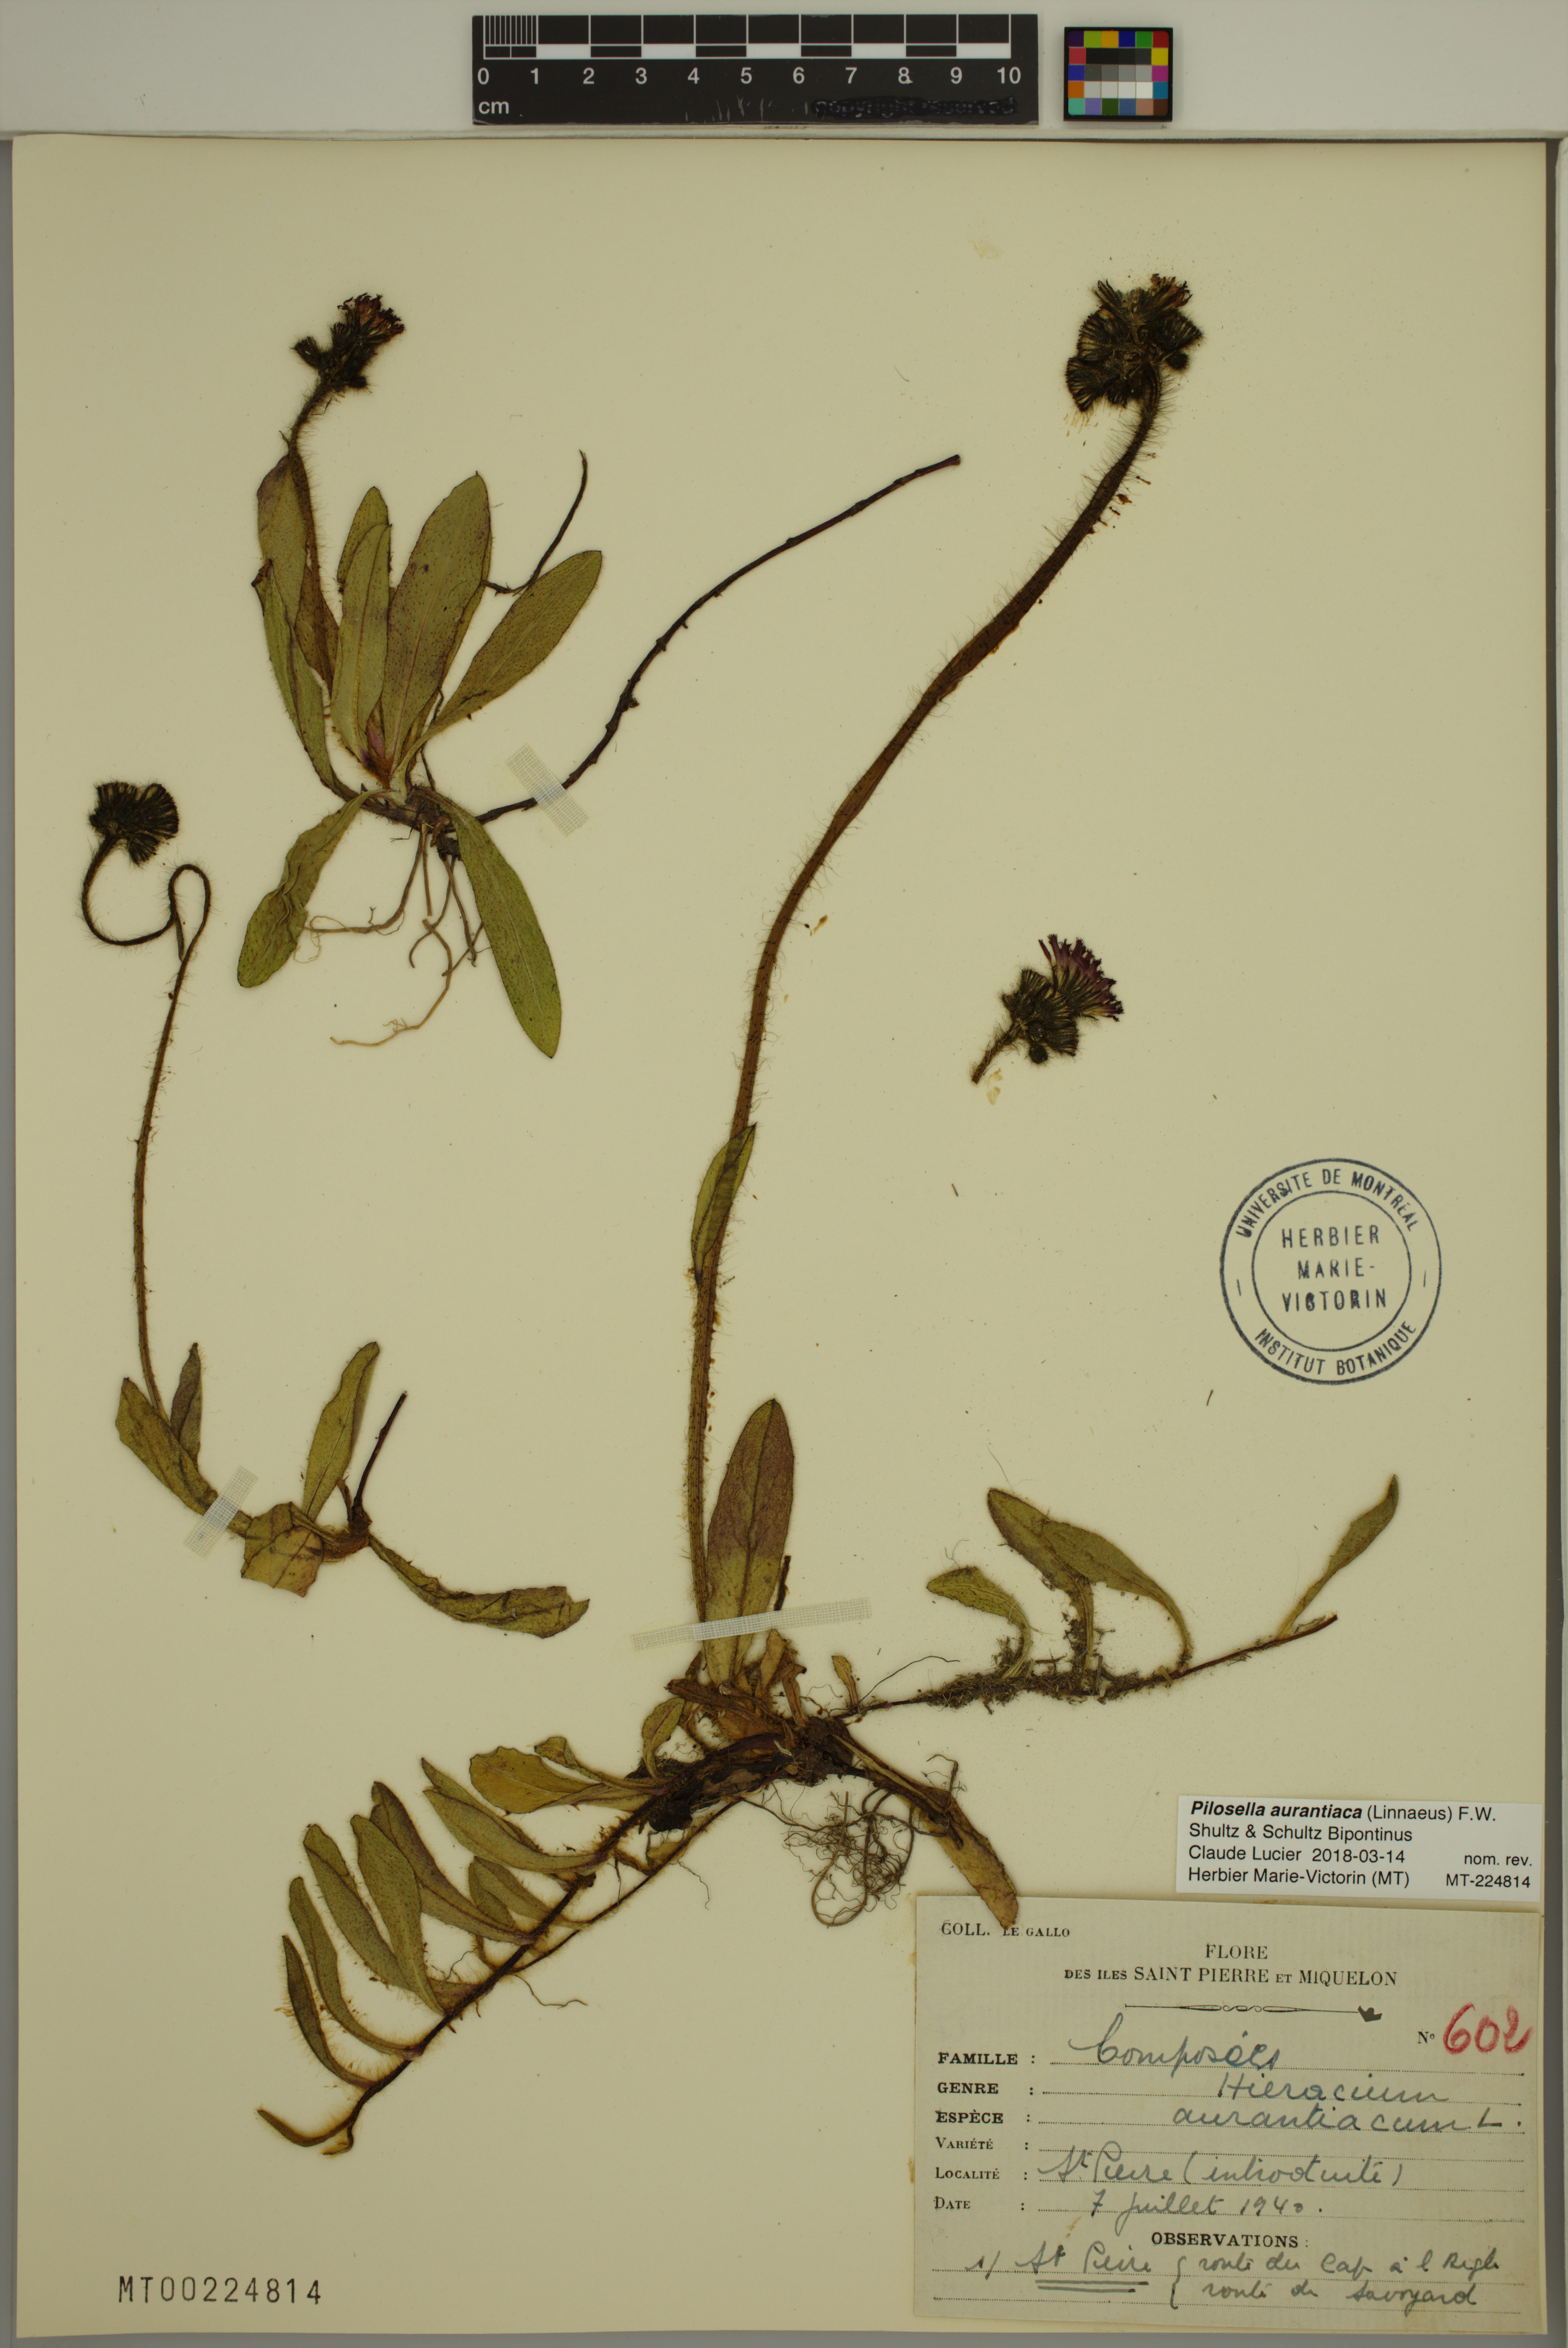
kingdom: Plantae
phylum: Tracheophyta
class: Magnoliopsida
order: Asterales
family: Asteraceae
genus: Pilosella
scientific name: Pilosella aurantiaca
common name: Fox-and-cubs
